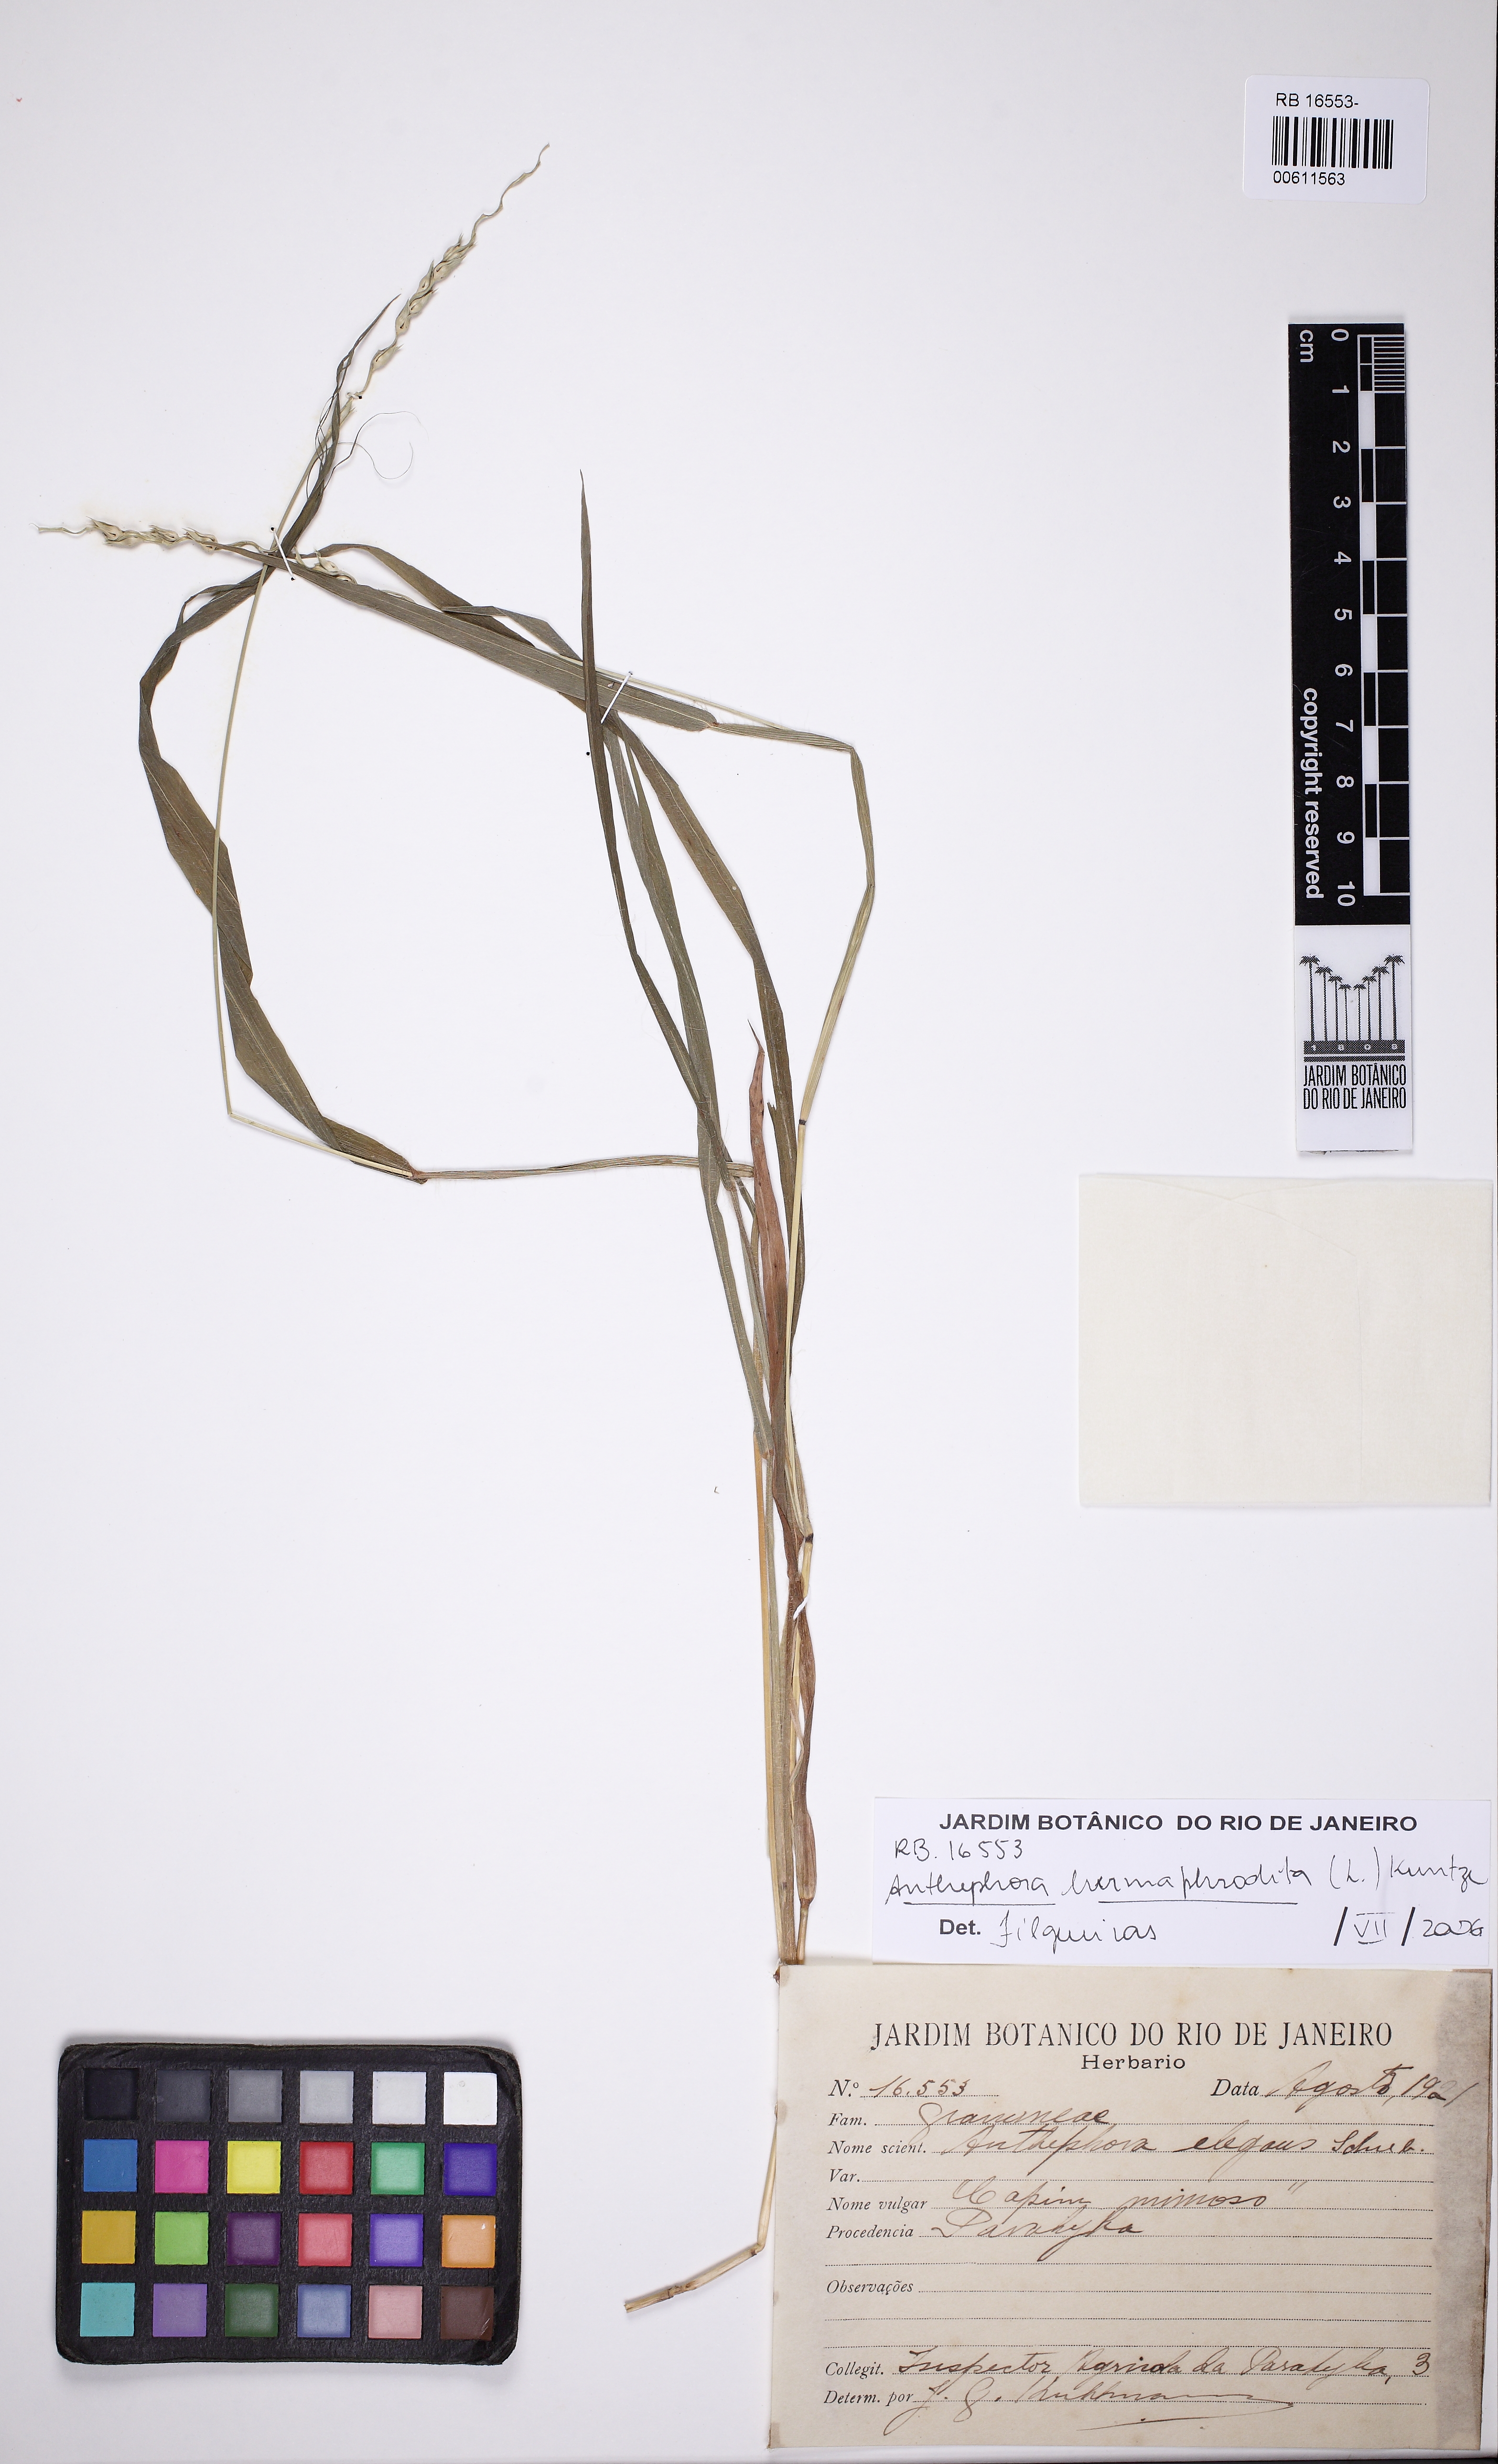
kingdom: Plantae
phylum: Tracheophyta
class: Liliopsida
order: Poales
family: Poaceae
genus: Anthephora
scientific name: Anthephora hermaphrodita
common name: Oldfield grass
